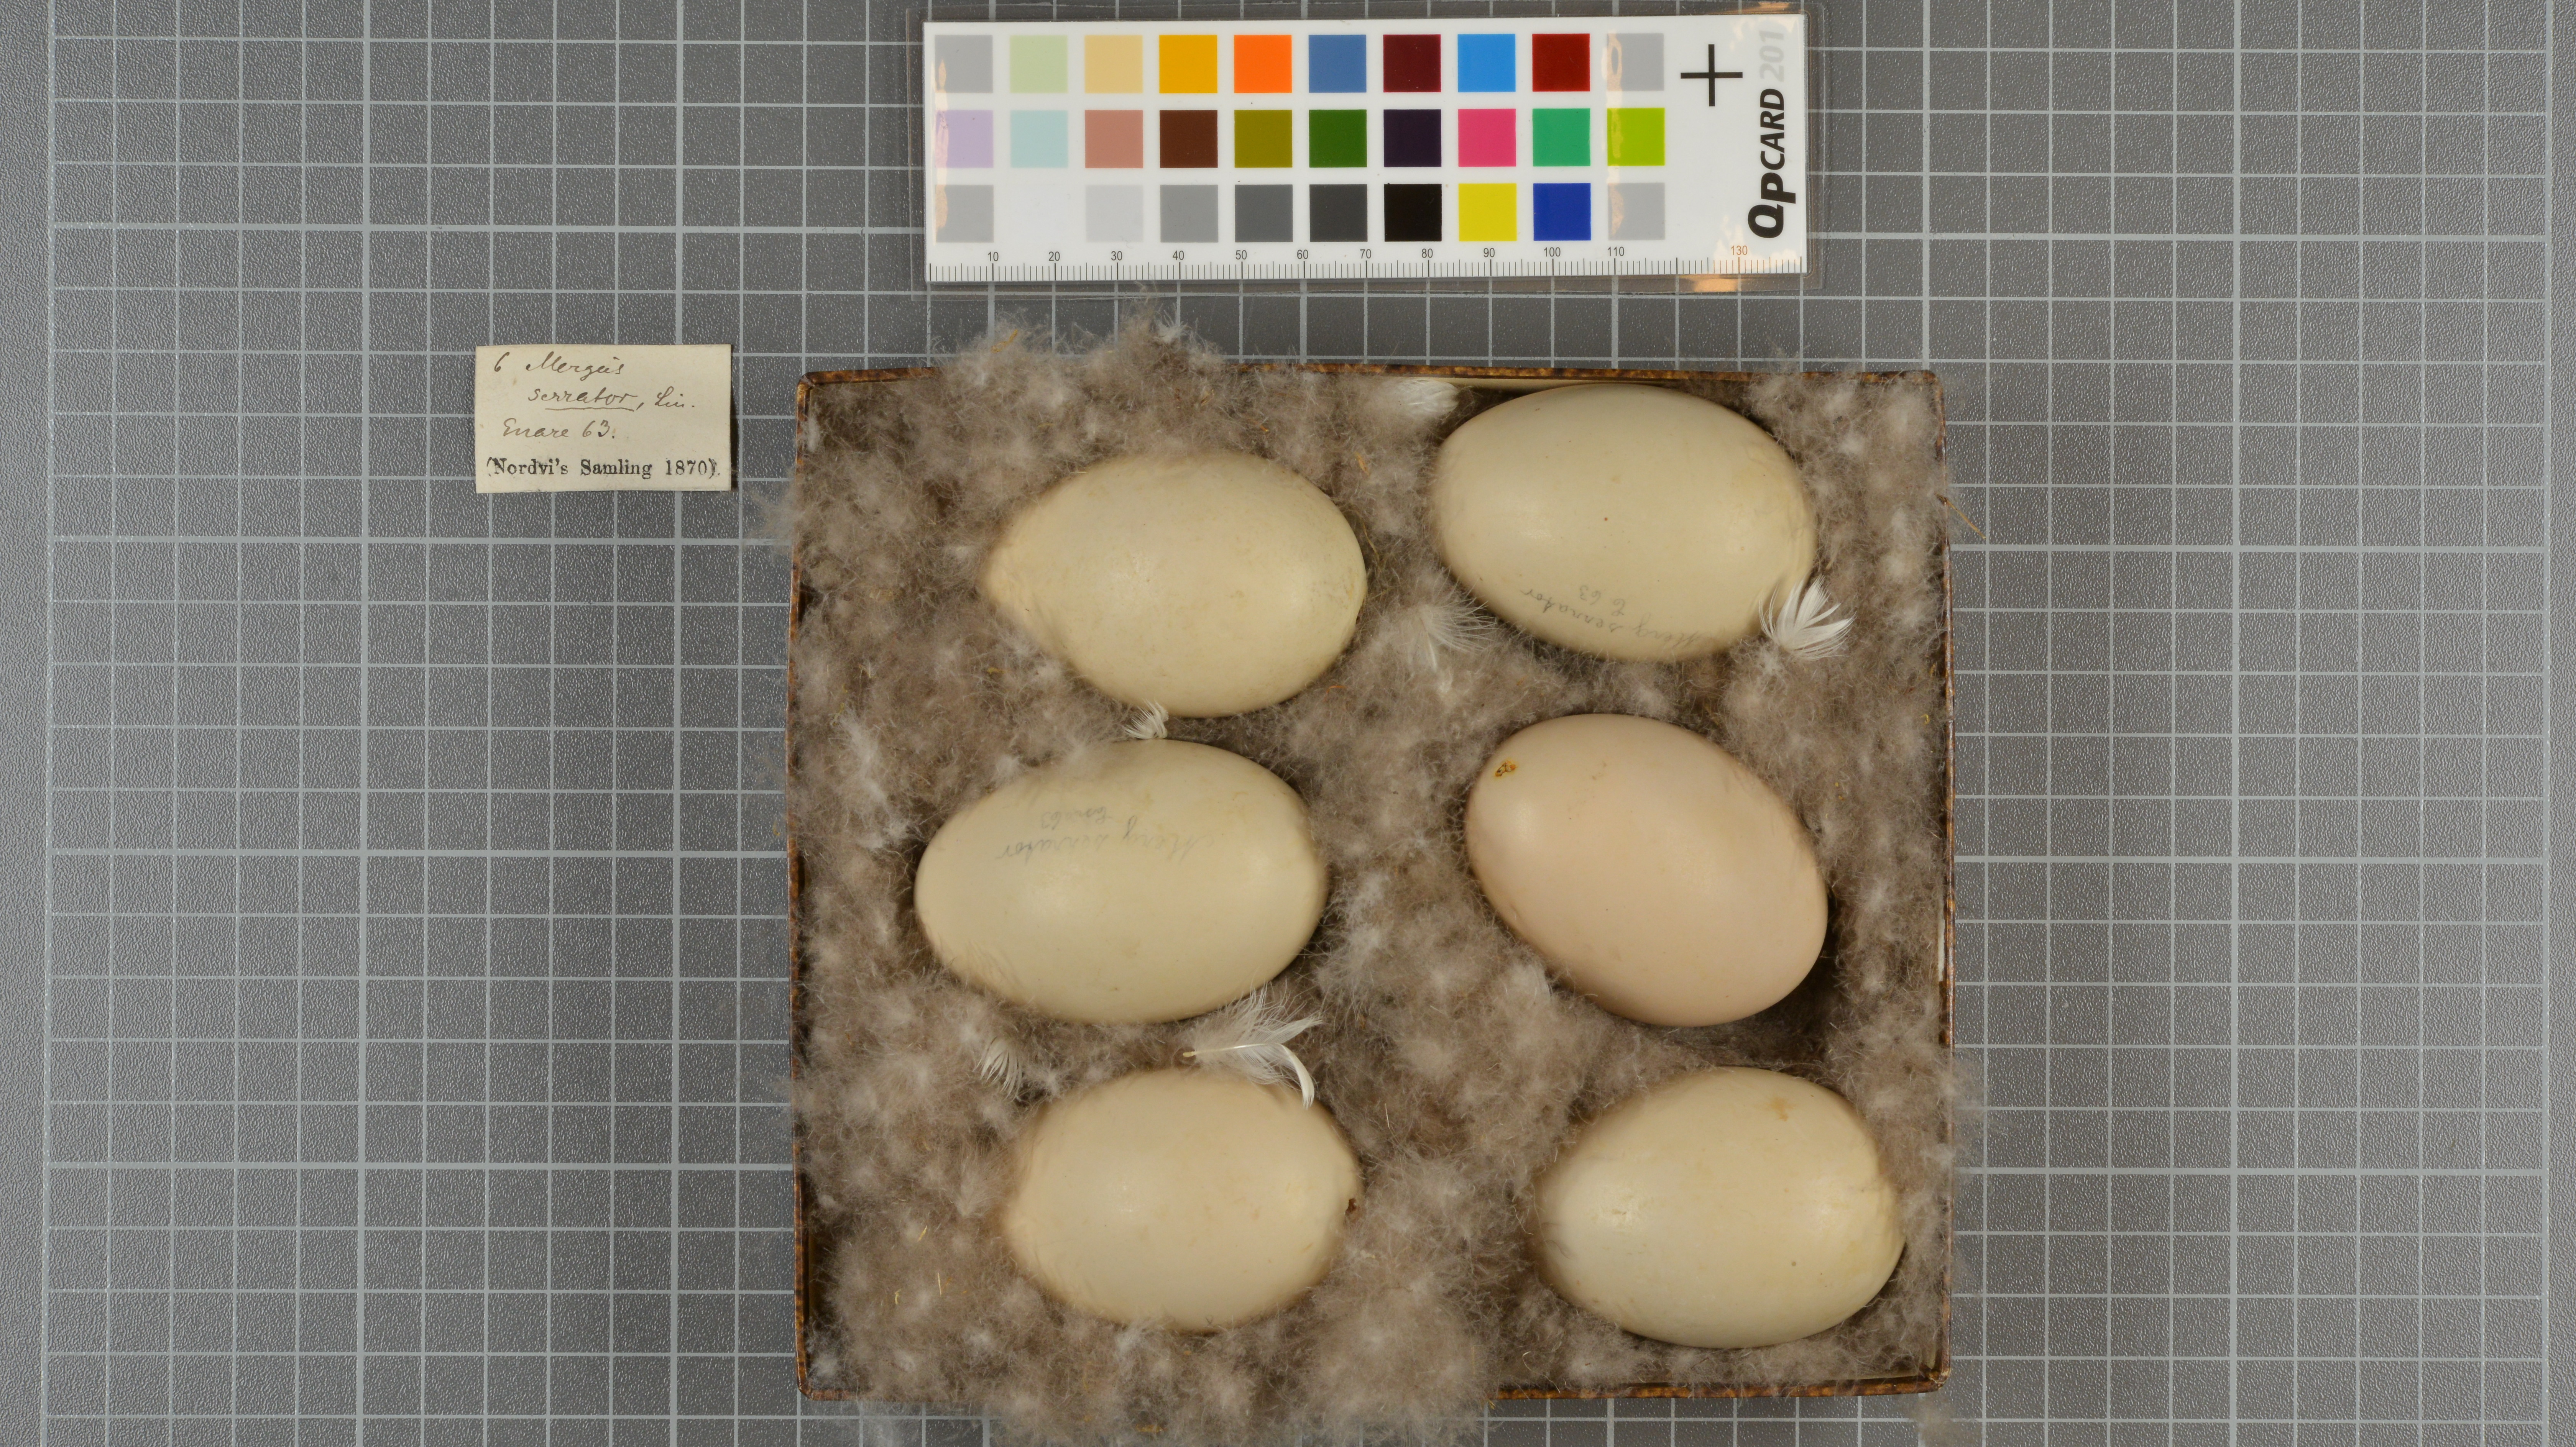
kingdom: Animalia
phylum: Chordata
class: Aves
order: Anseriformes
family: Anatidae
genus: Mergus
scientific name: Mergus serrator
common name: Red-breasted merganser
